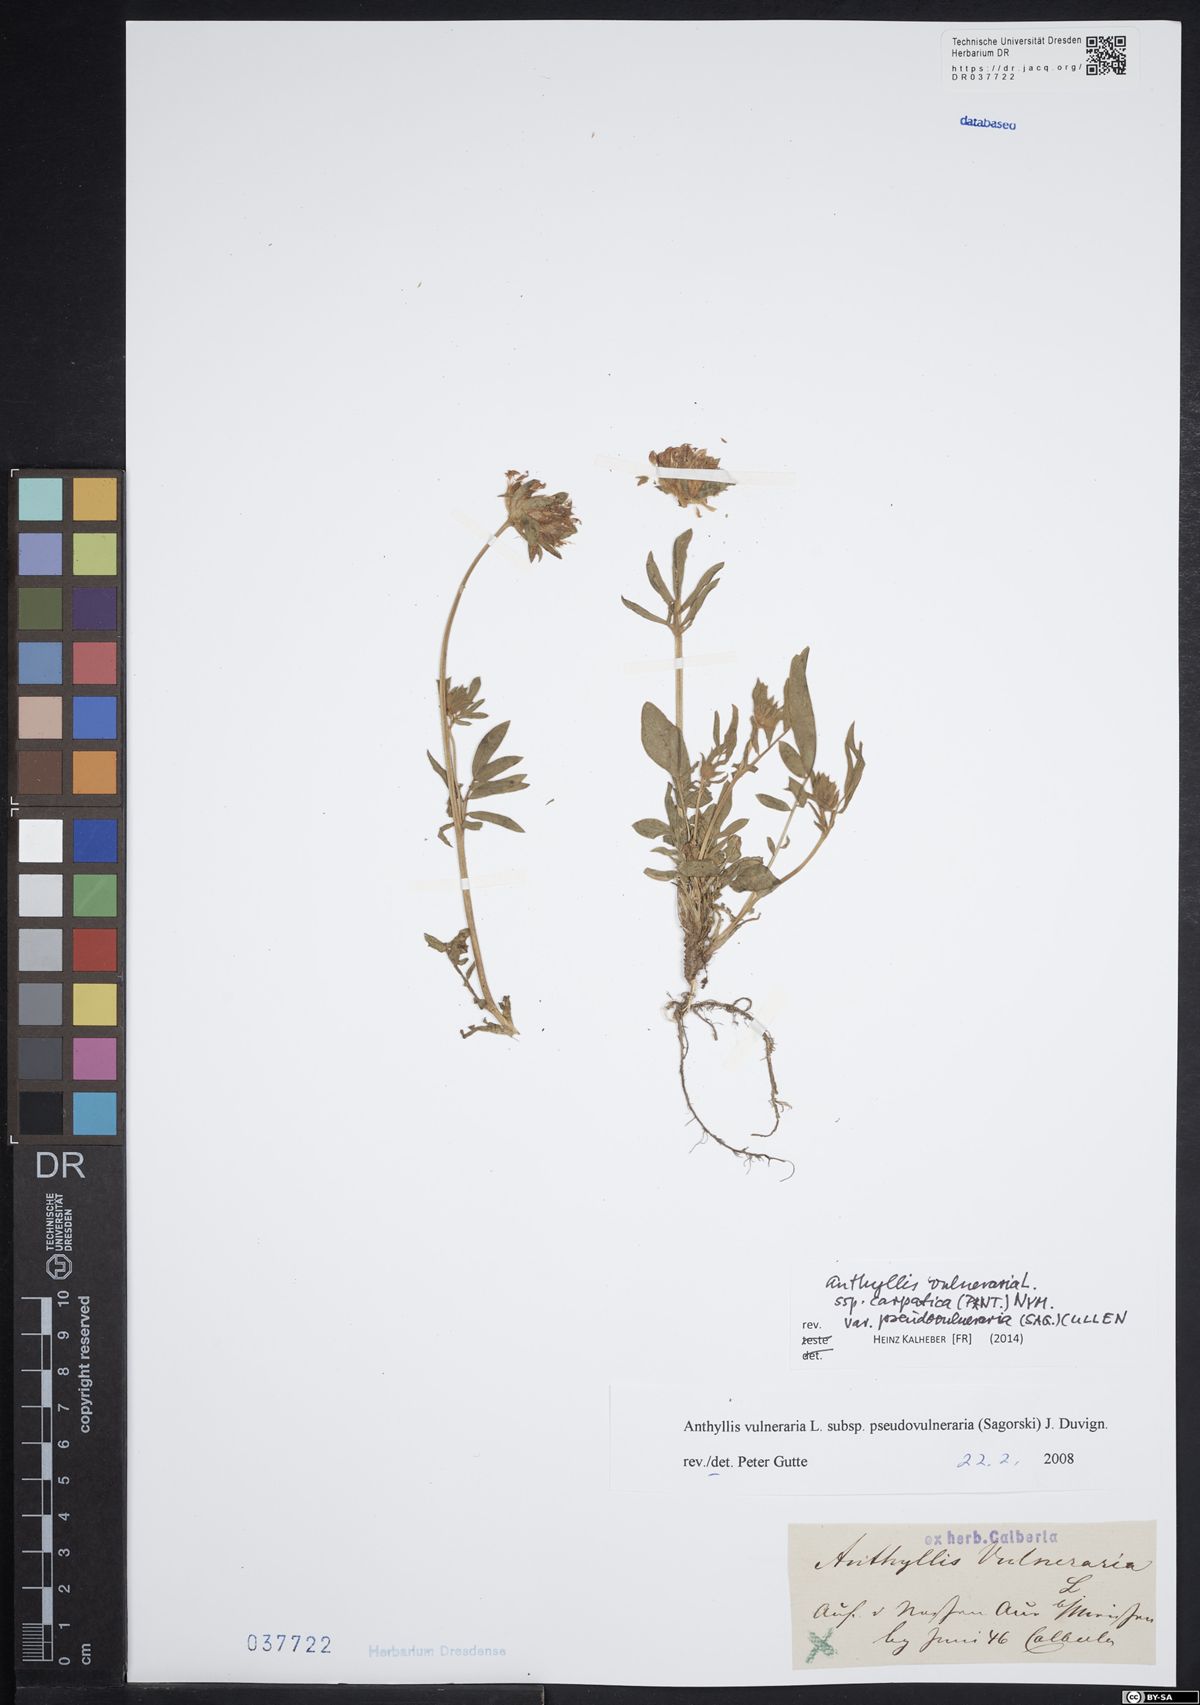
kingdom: Plantae
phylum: Tracheophyta
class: Magnoliopsida
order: Fabales
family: Fabaceae
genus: Anthyllis
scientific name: Anthyllis vulneraria
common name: Kidney vetch
